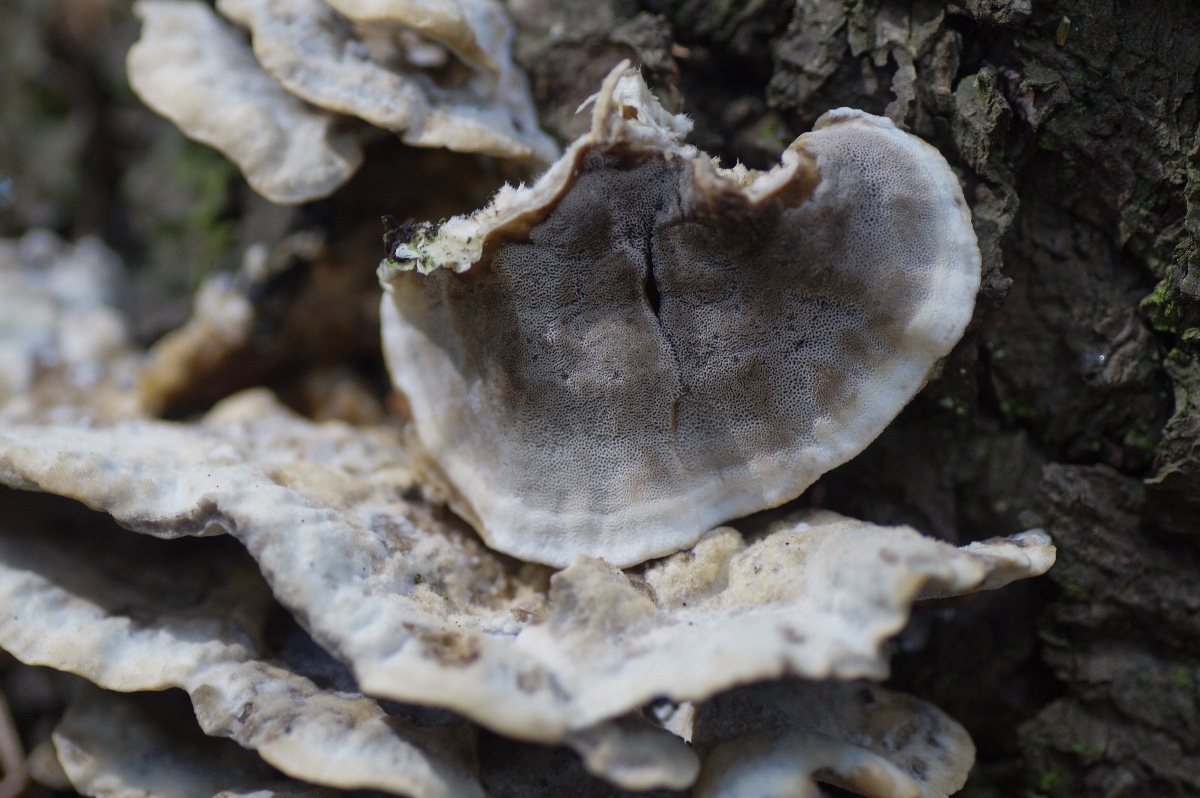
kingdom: Fungi
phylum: Basidiomycota
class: Agaricomycetes
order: Polyporales
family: Phanerochaetaceae
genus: Bjerkandera
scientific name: Bjerkandera adusta
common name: sveden sodporesvamp
